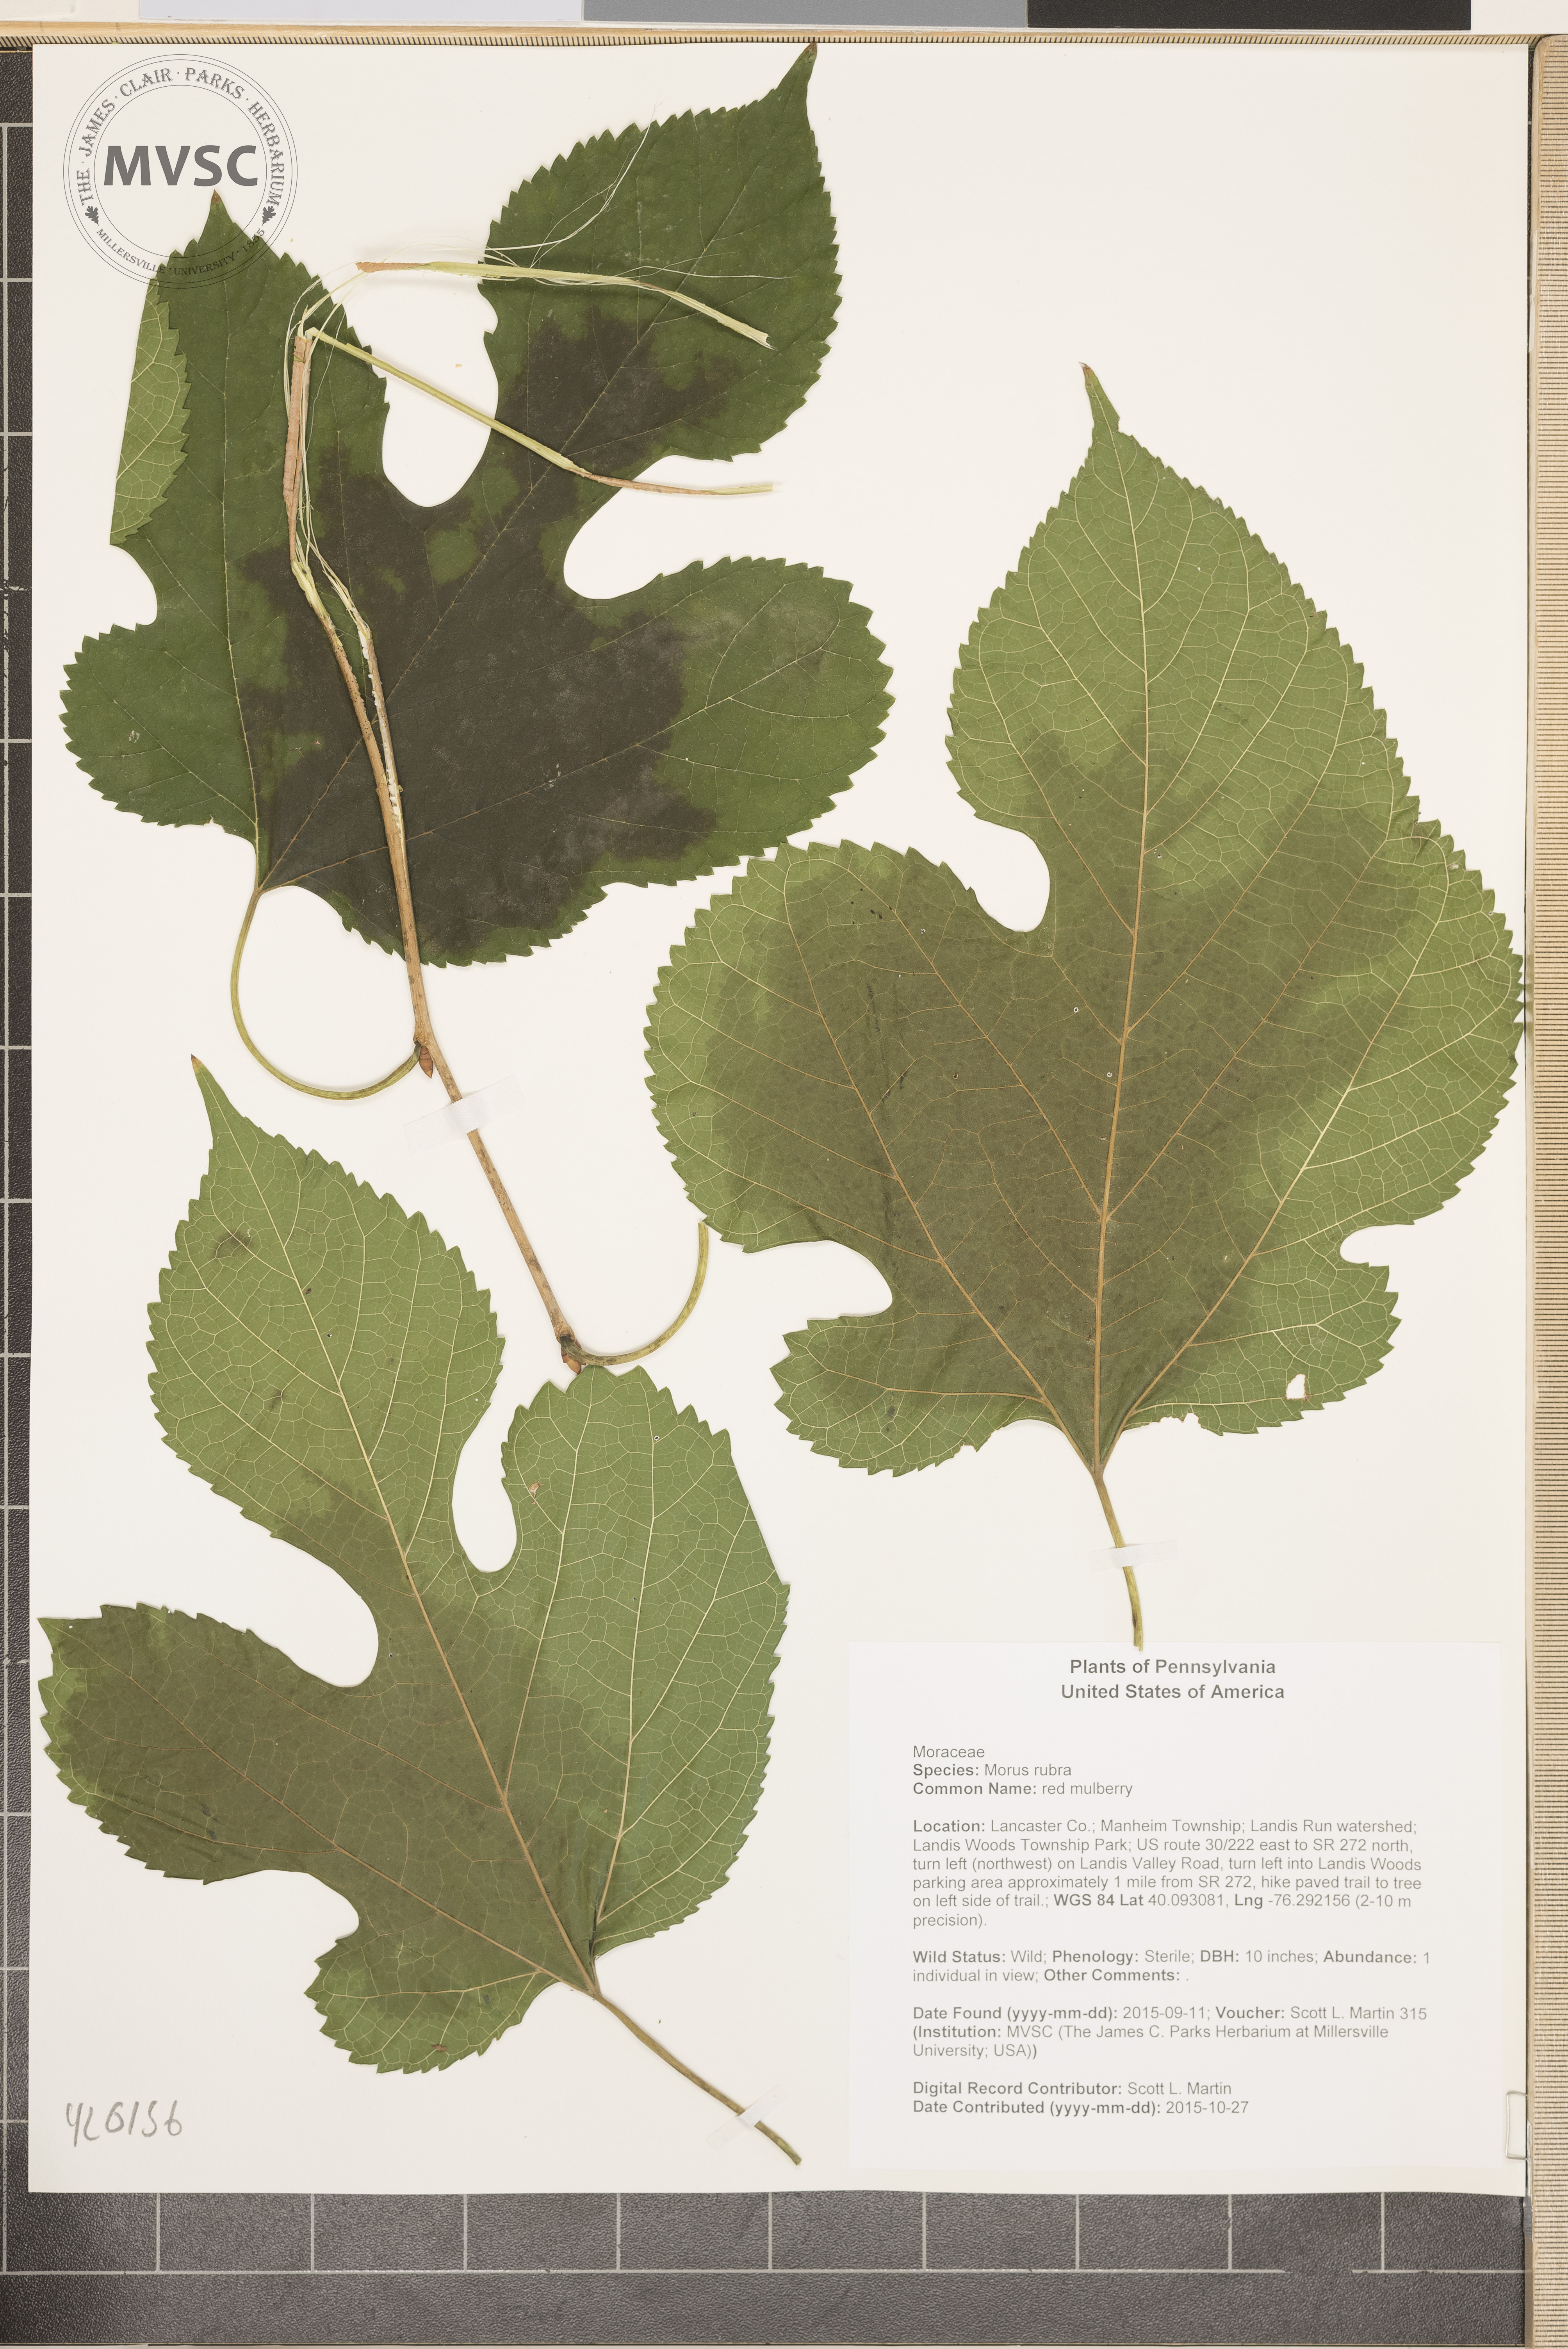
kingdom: Plantae
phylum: Tracheophyta
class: Magnoliopsida
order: Rosales
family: Moraceae
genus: Morus
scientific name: Morus rubra
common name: red mulberry
